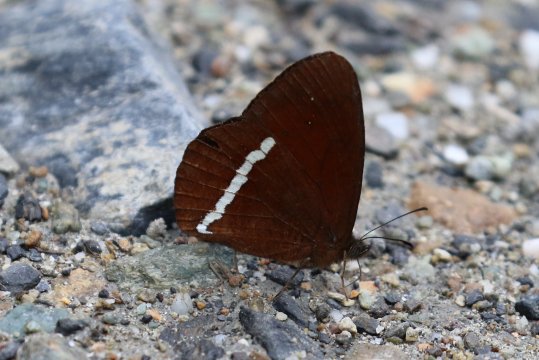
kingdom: Animalia
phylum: Arthropoda
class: Insecta
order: Lepidoptera
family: Nymphalidae
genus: Lymanopoda
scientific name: Lymanopoda albocincta
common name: White-banded Mountain Satyr
